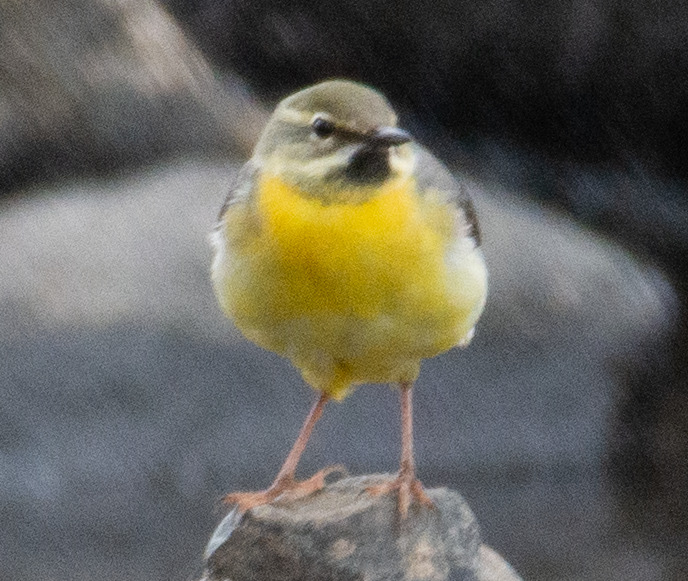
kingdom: Animalia
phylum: Chordata
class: Aves
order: Passeriformes
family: Motacillidae
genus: Motacilla
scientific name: Motacilla cinerea
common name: Bjergvipstjert
